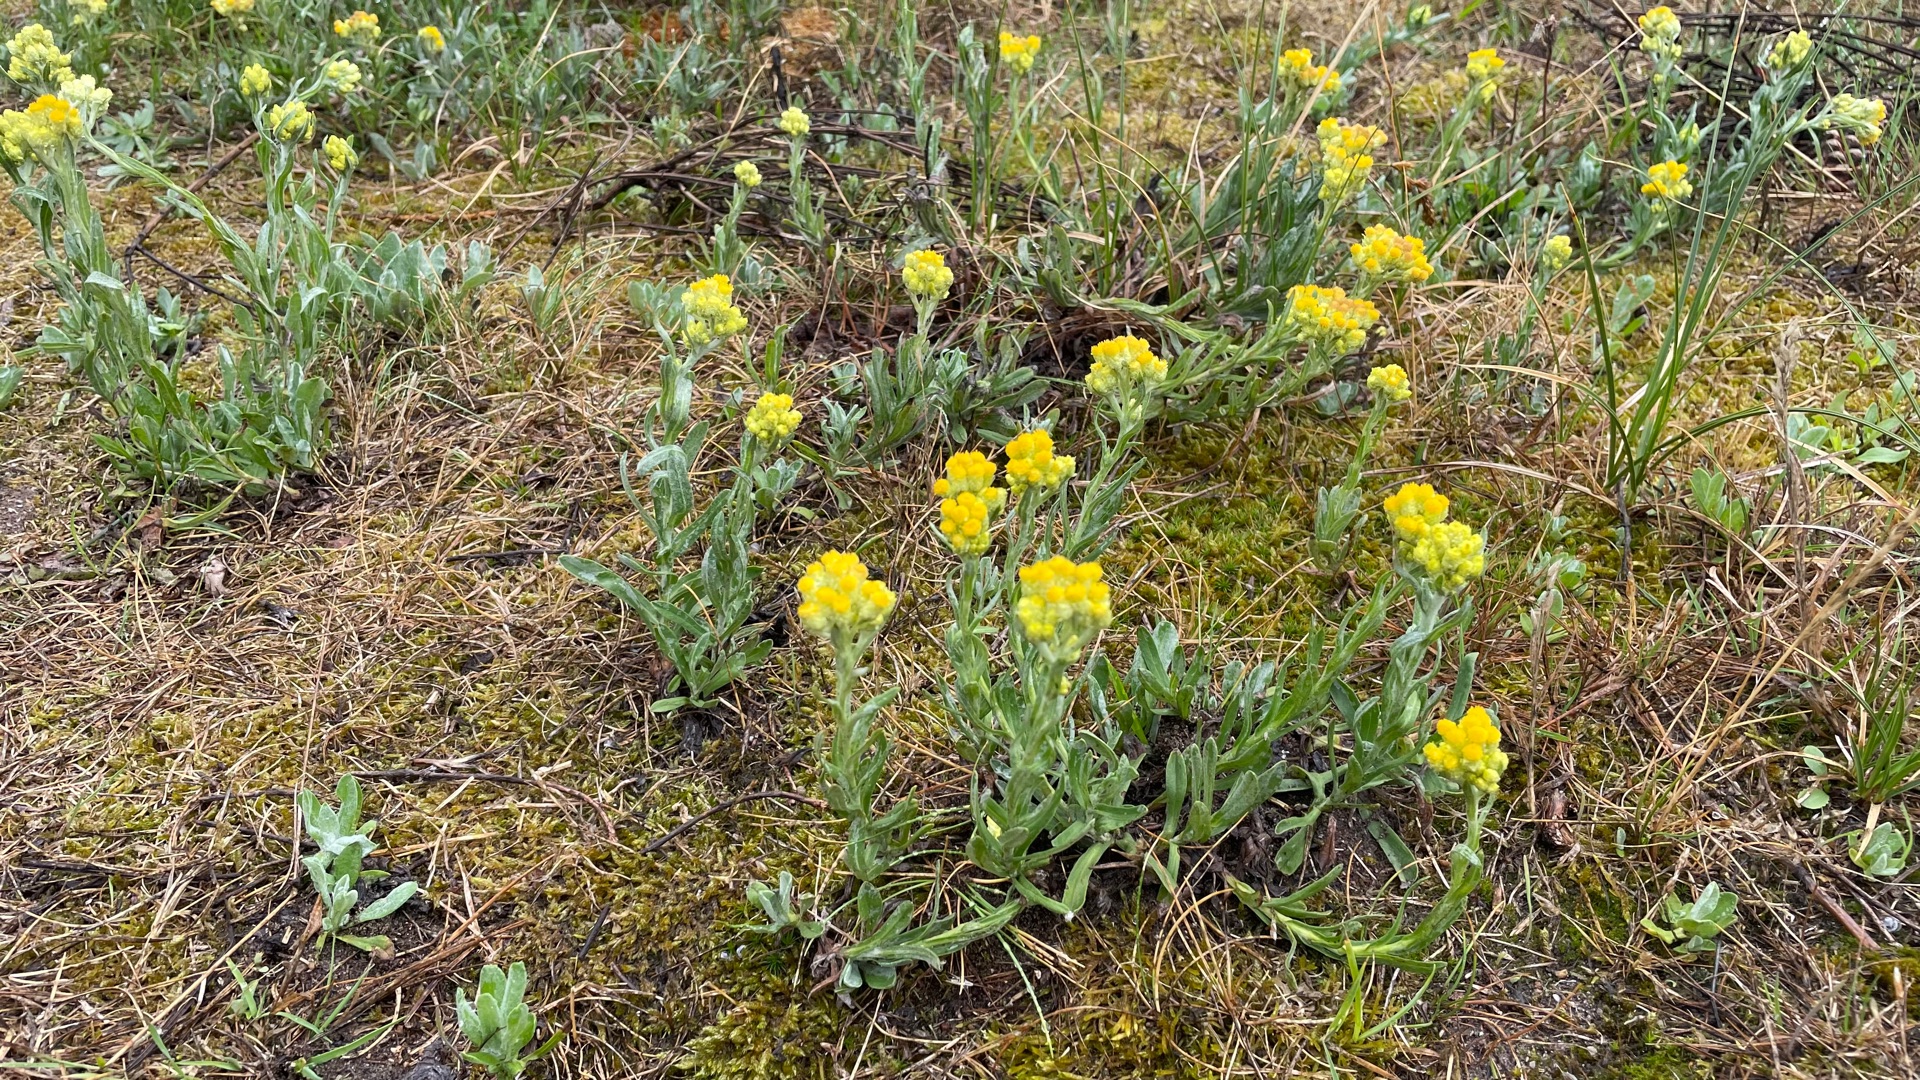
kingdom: Plantae
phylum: Tracheophyta
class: Magnoliopsida
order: Asterales
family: Asteraceae
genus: Helichrysum
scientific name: Helichrysum arenarium
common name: Gul evighedsblomst
